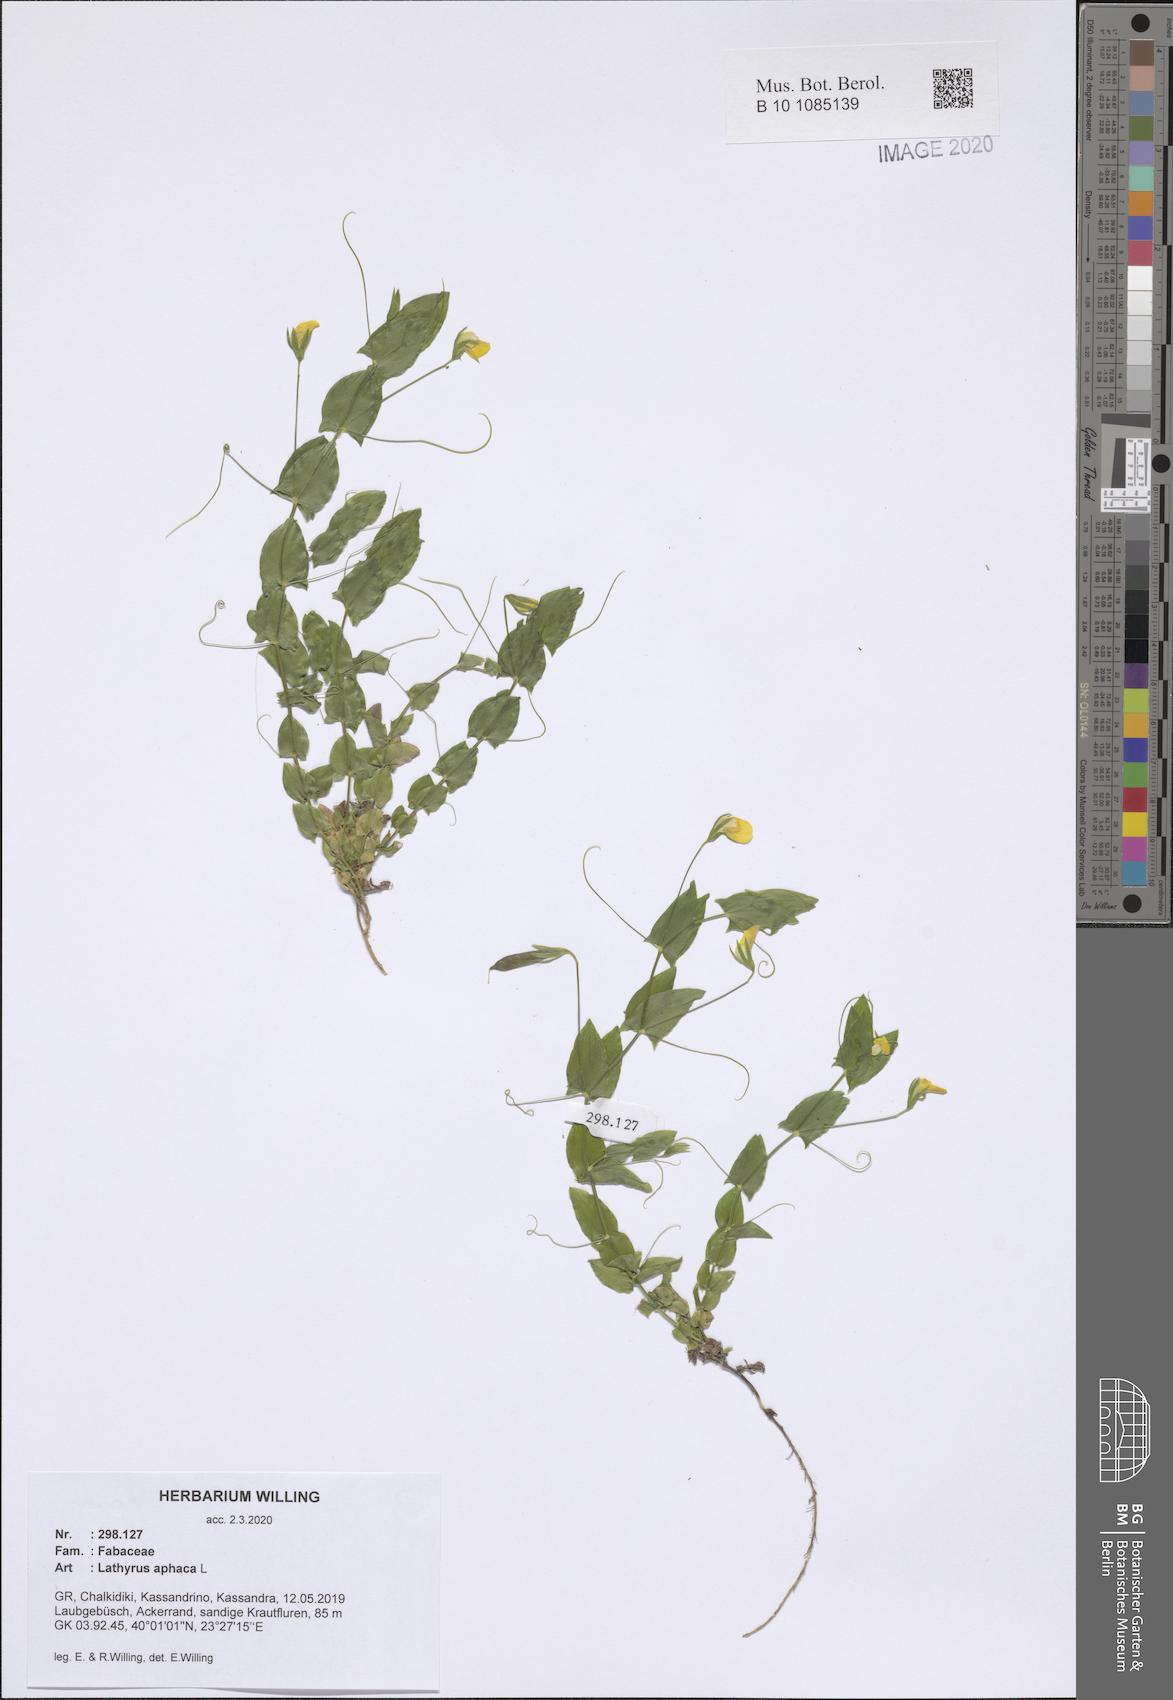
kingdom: Plantae
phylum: Tracheophyta
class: Magnoliopsida
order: Fabales
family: Fabaceae
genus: Lathyrus
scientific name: Lathyrus aphaca
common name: Yellow vetchling
